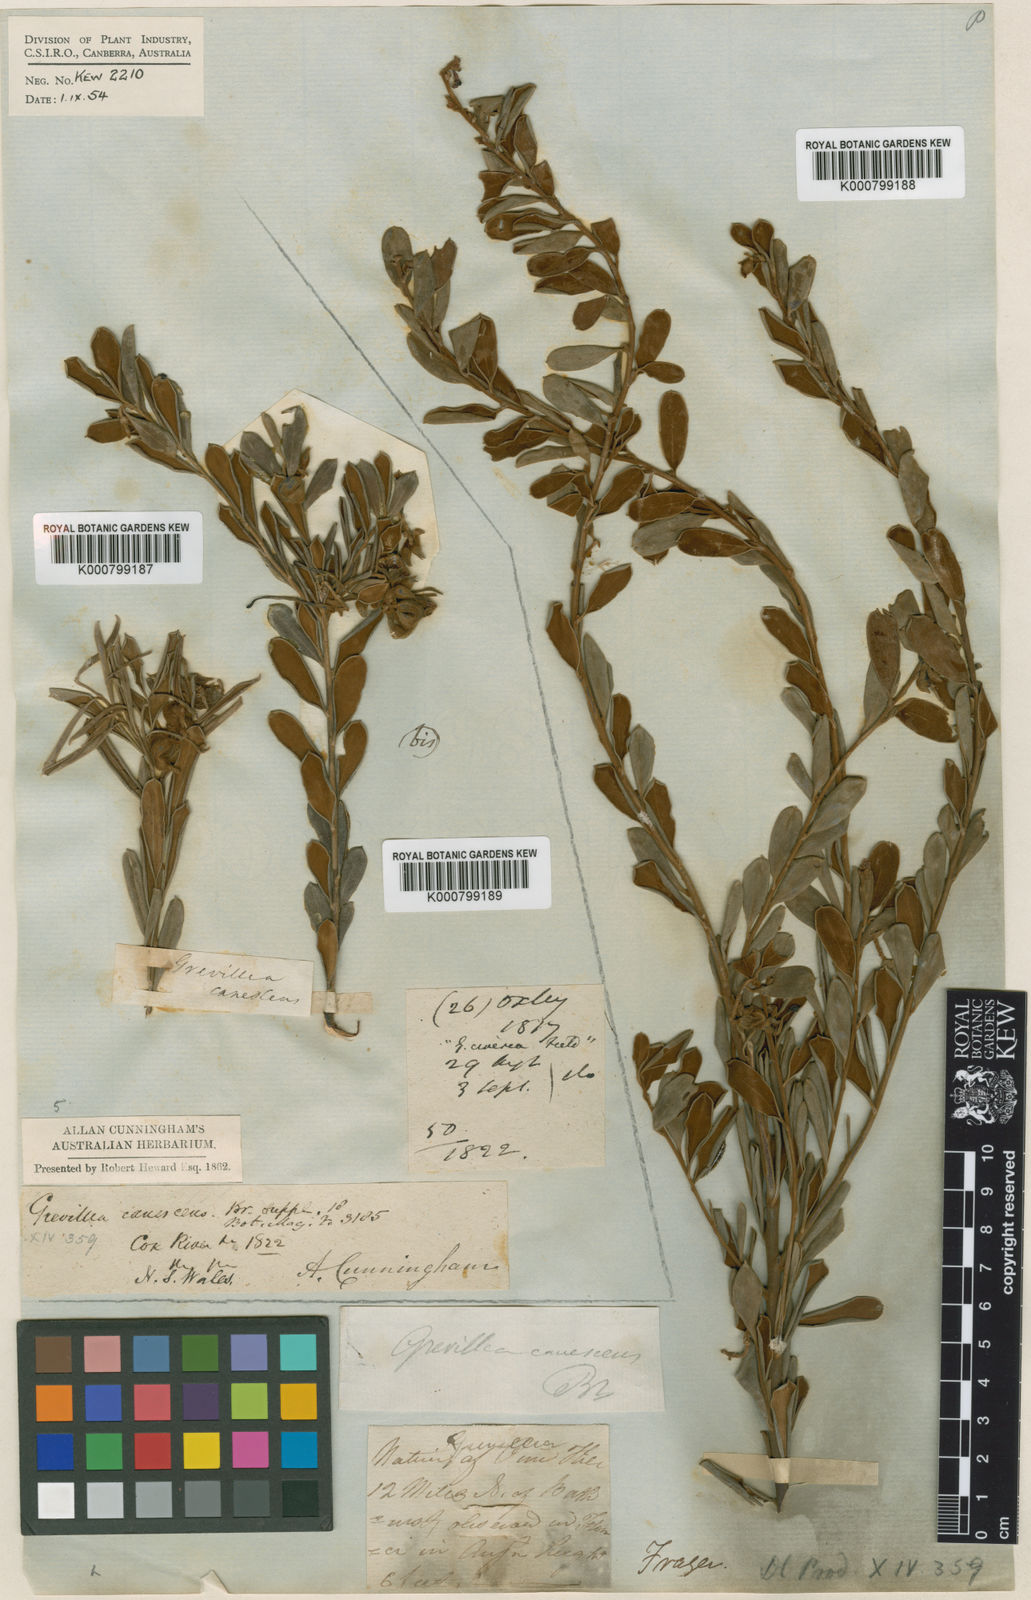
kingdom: Plantae
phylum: Tracheophyta
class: Magnoliopsida
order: Proteales
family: Proteaceae
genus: Grevillea
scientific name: Grevillea arenaria
